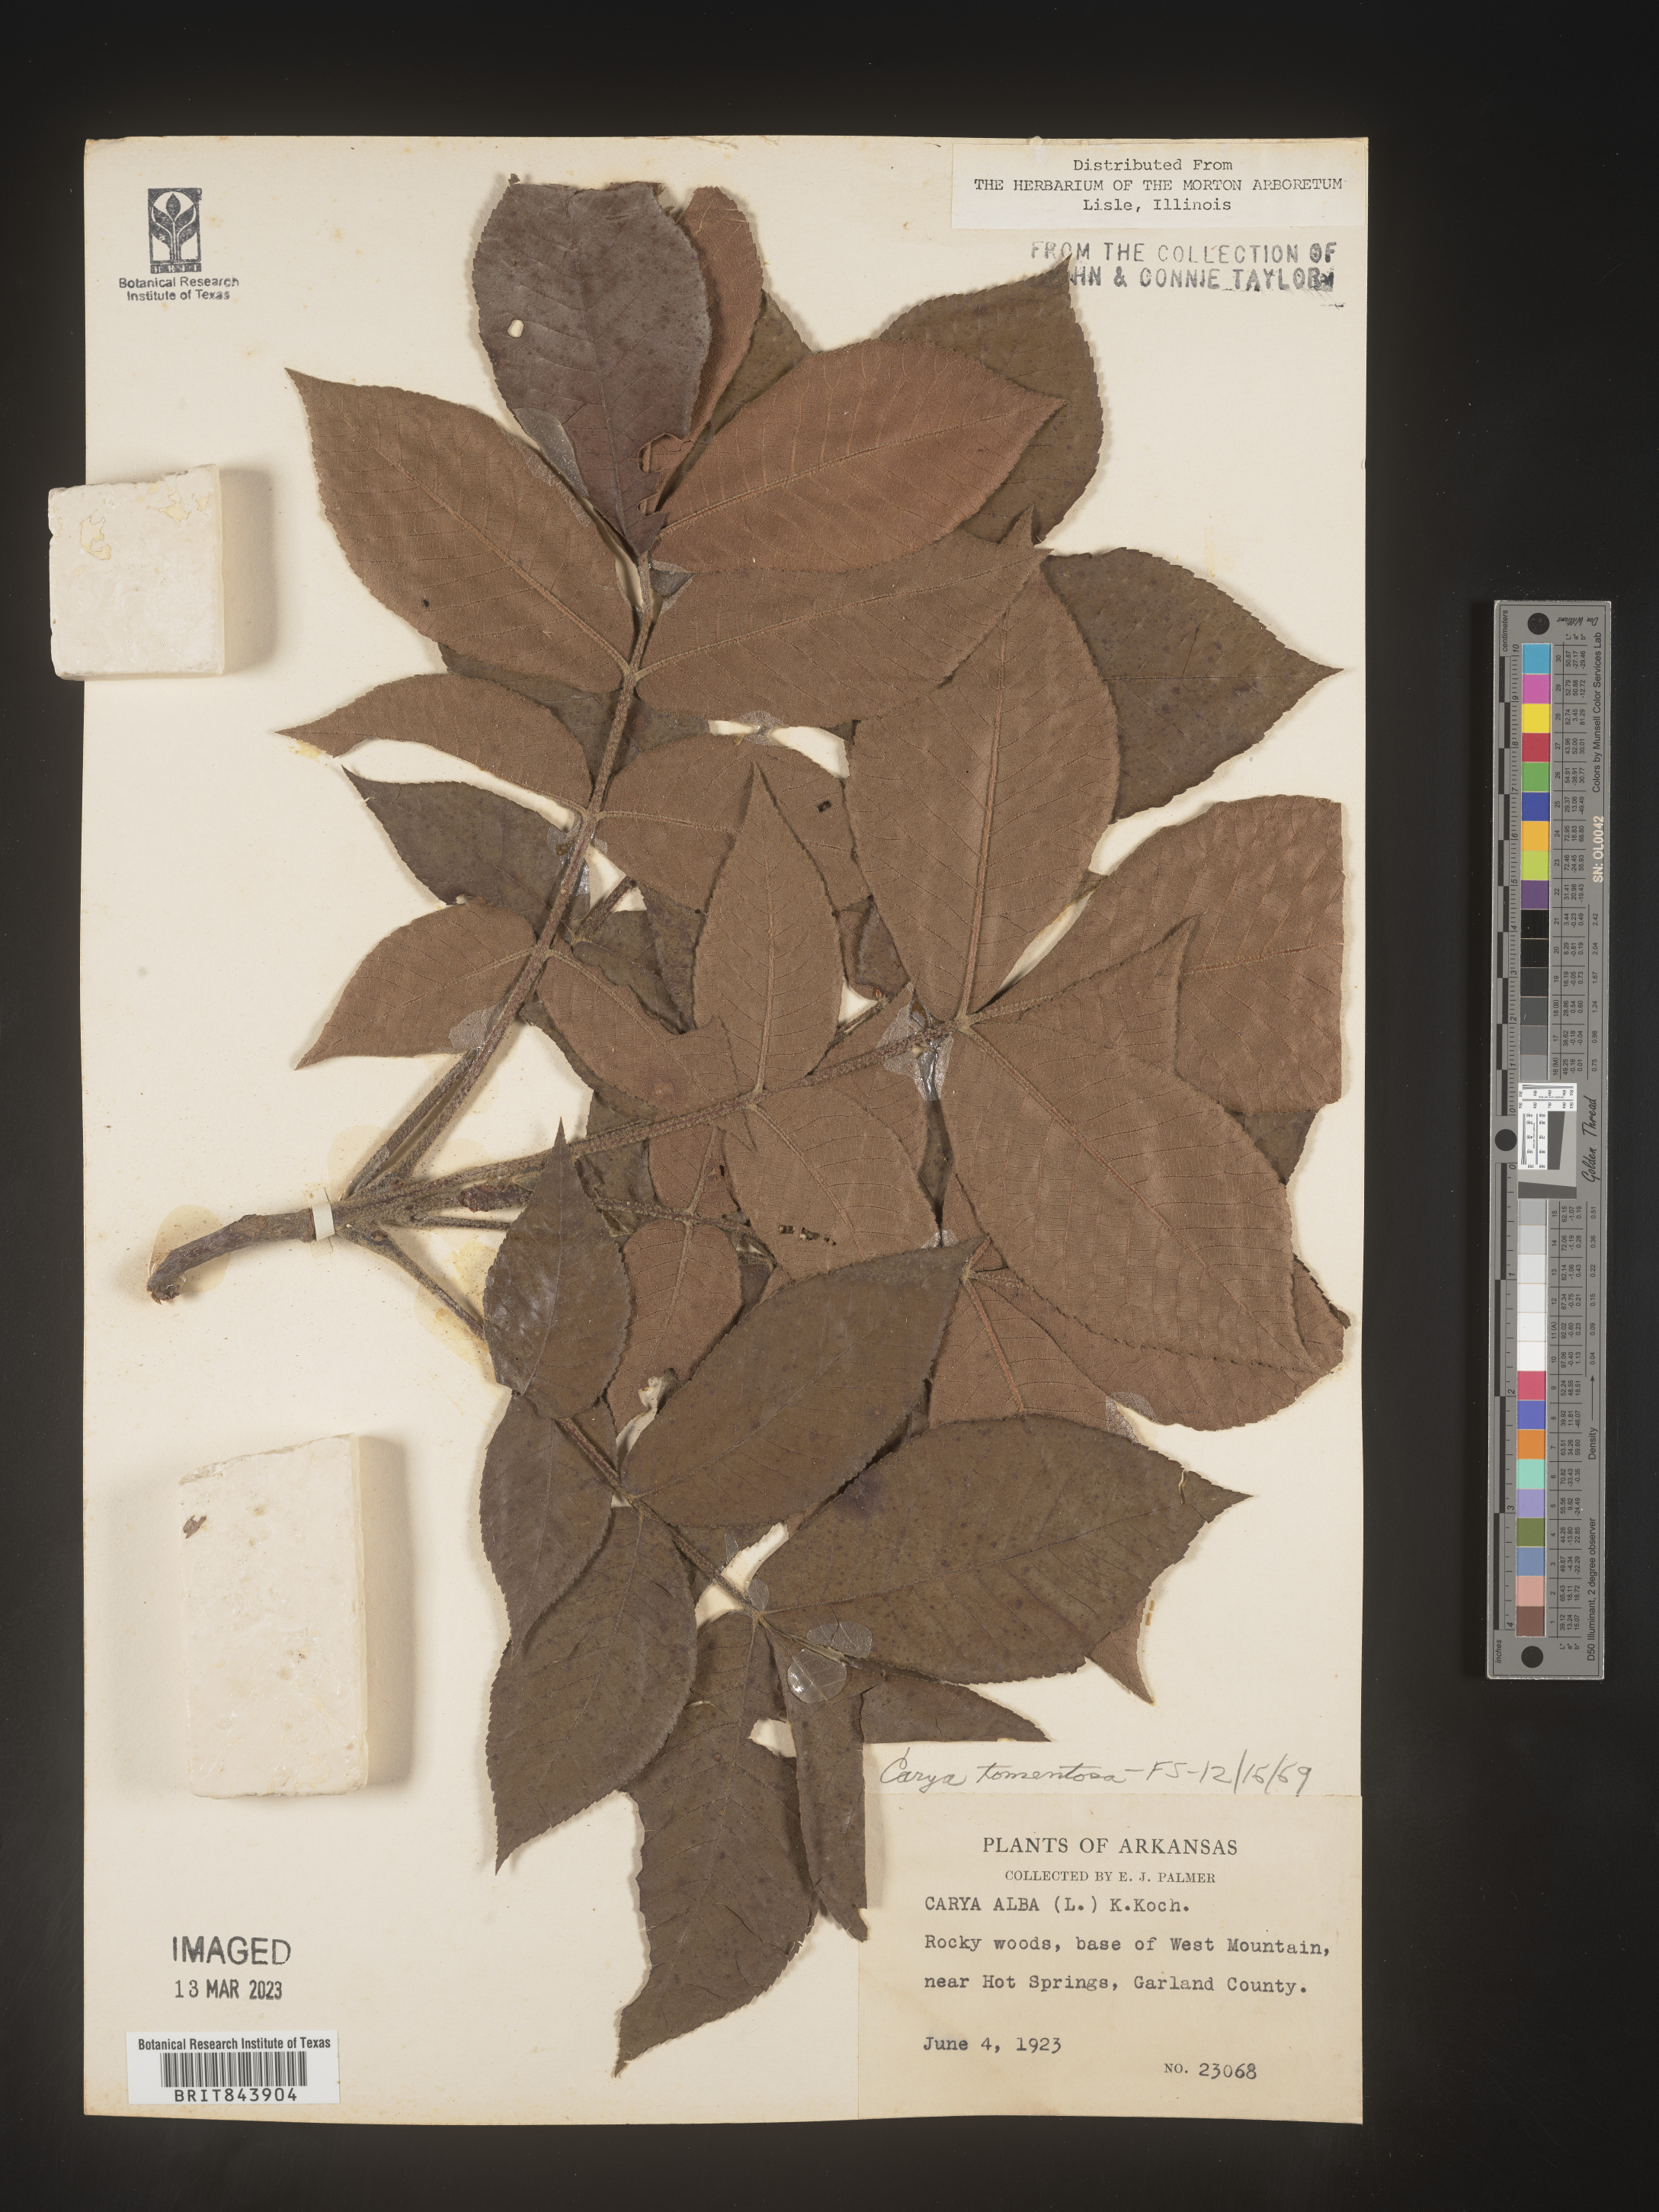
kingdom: Plantae
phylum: Tracheophyta
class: Magnoliopsida
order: Fagales
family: Juglandaceae
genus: Carya
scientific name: Carya alba
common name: Mockernut hickory
